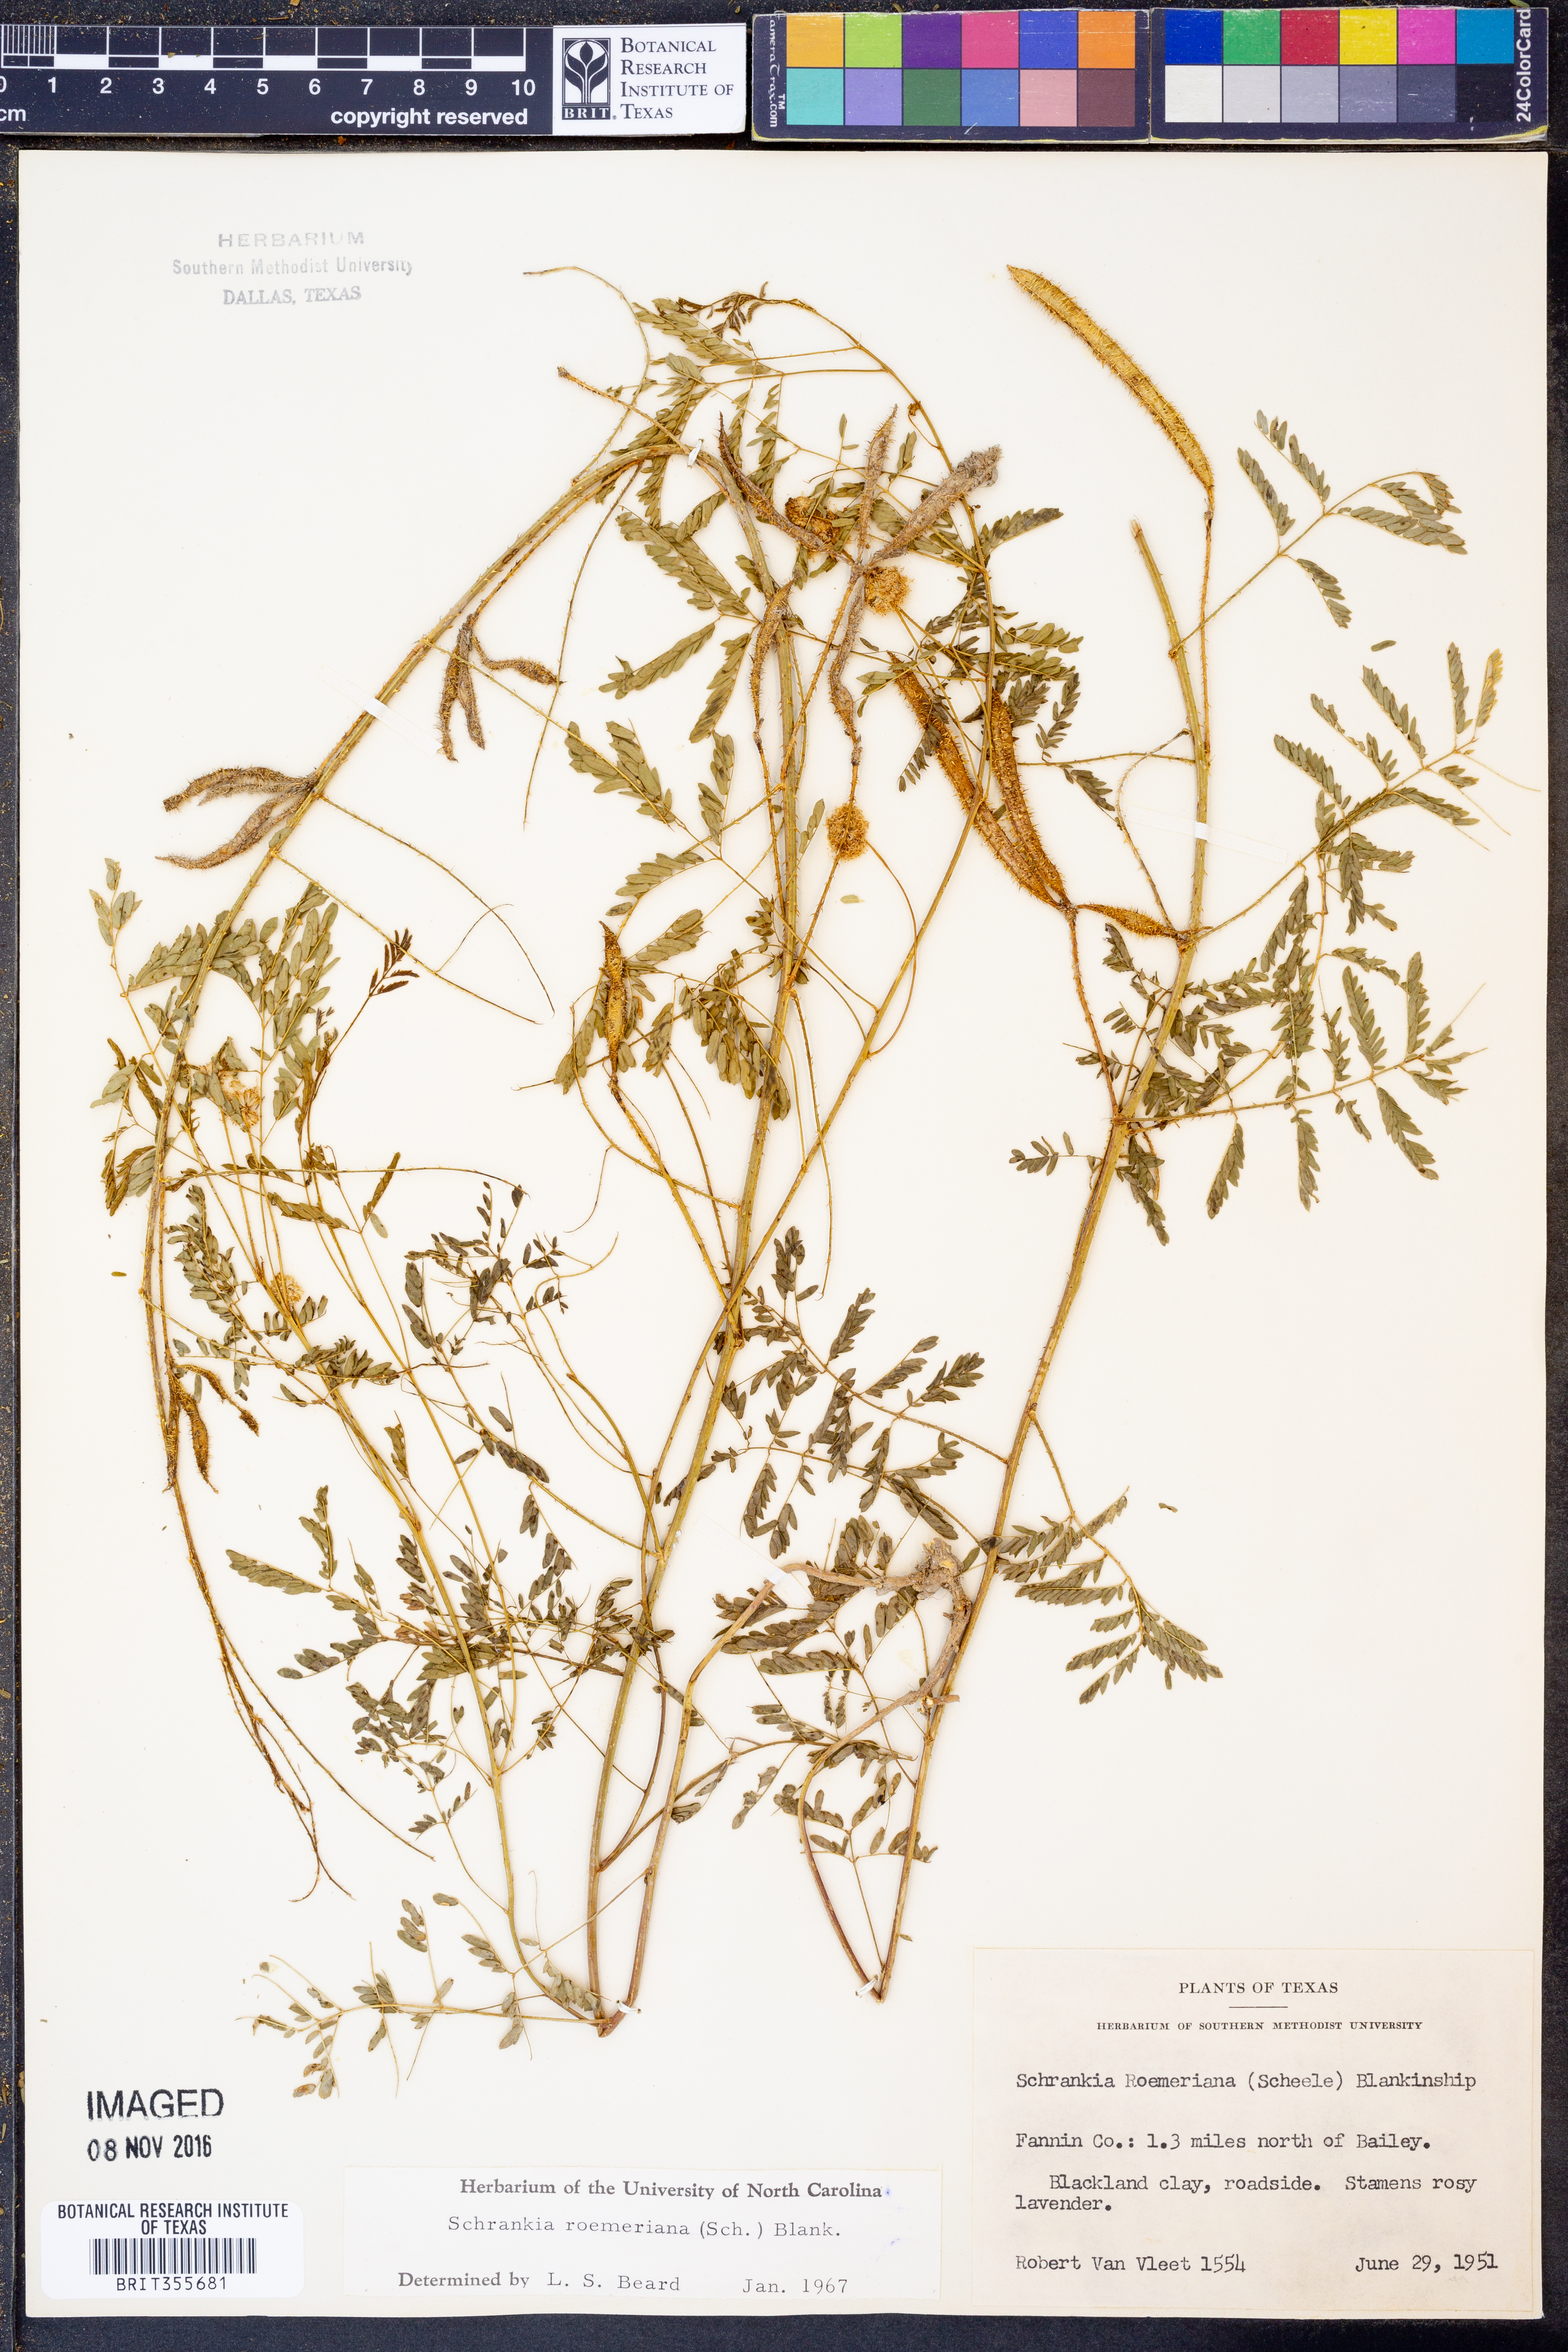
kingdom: Plantae
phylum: Tracheophyta
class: Magnoliopsida
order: Fabales
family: Fabaceae
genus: Mimosa
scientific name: Mimosa quadrivalvis
